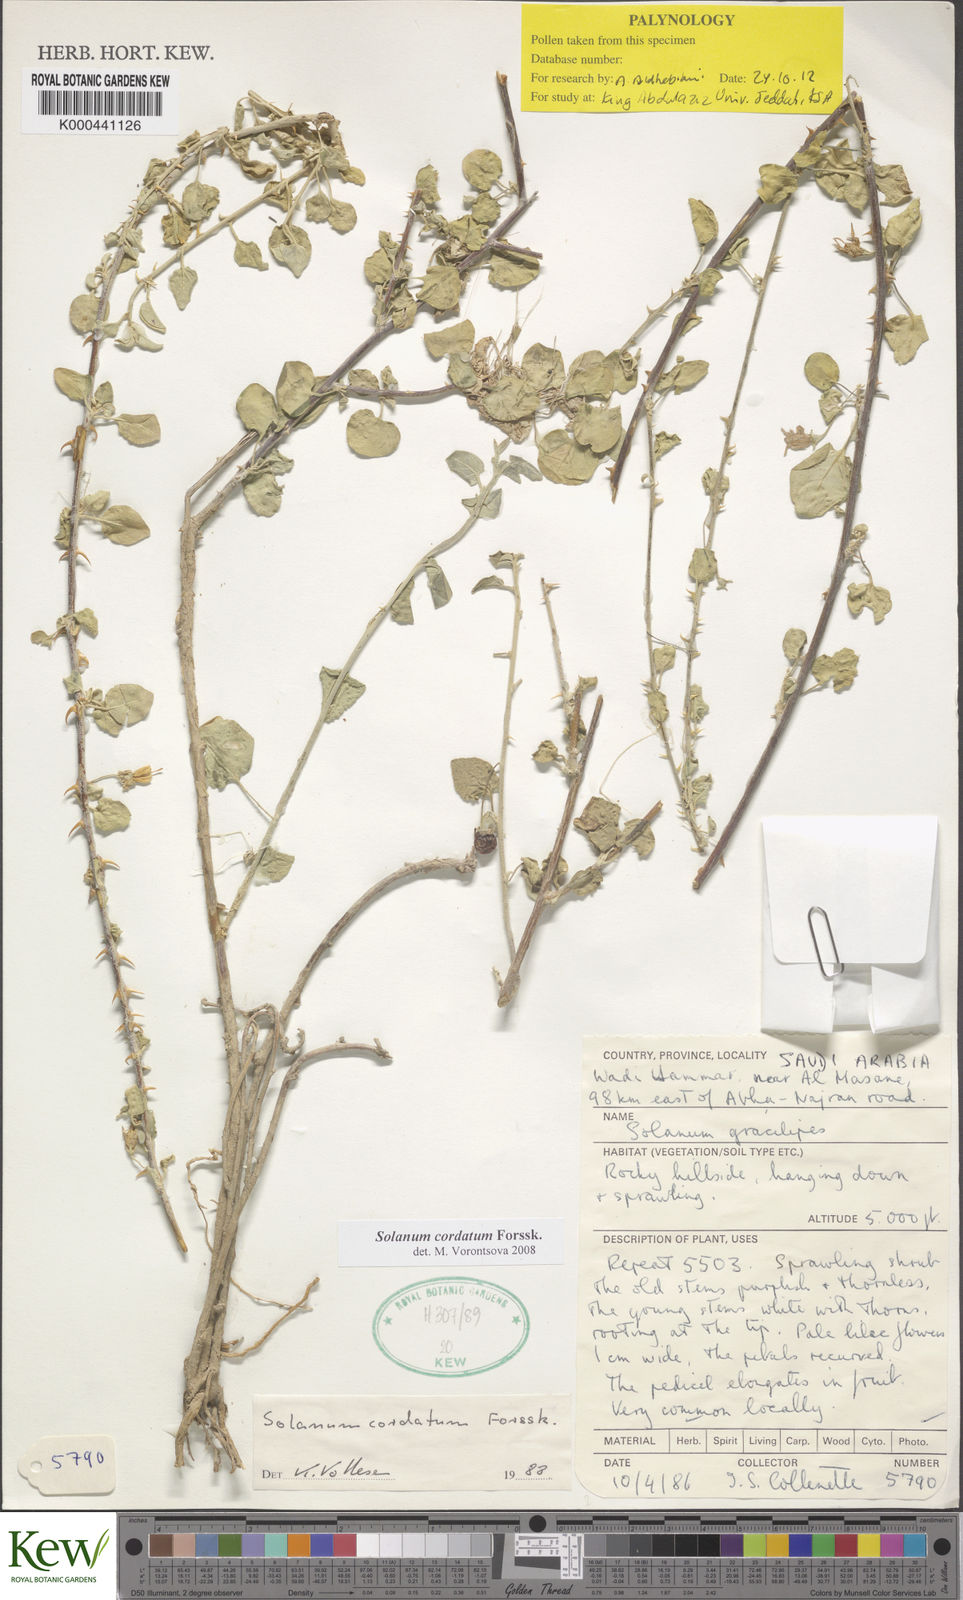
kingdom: Plantae
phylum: Tracheophyta
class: Magnoliopsida
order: Solanales
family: Solanaceae
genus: Solanum
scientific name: Solanum cordatum
